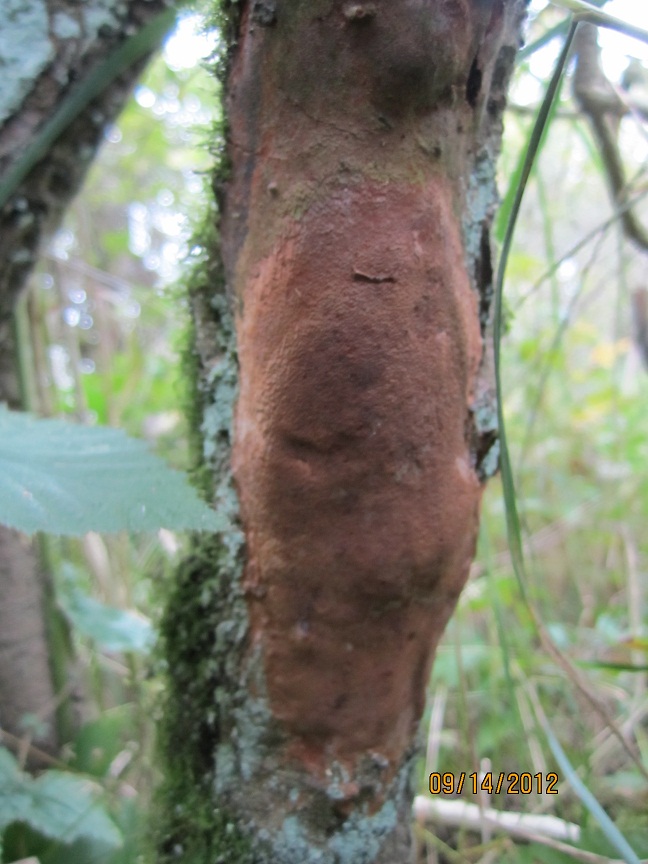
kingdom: Fungi
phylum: Basidiomycota
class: Agaricomycetes
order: Hymenochaetales
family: Hymenochaetaceae
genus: Fomitiporia
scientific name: Fomitiporia punctata
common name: pude-ildporesvamp
